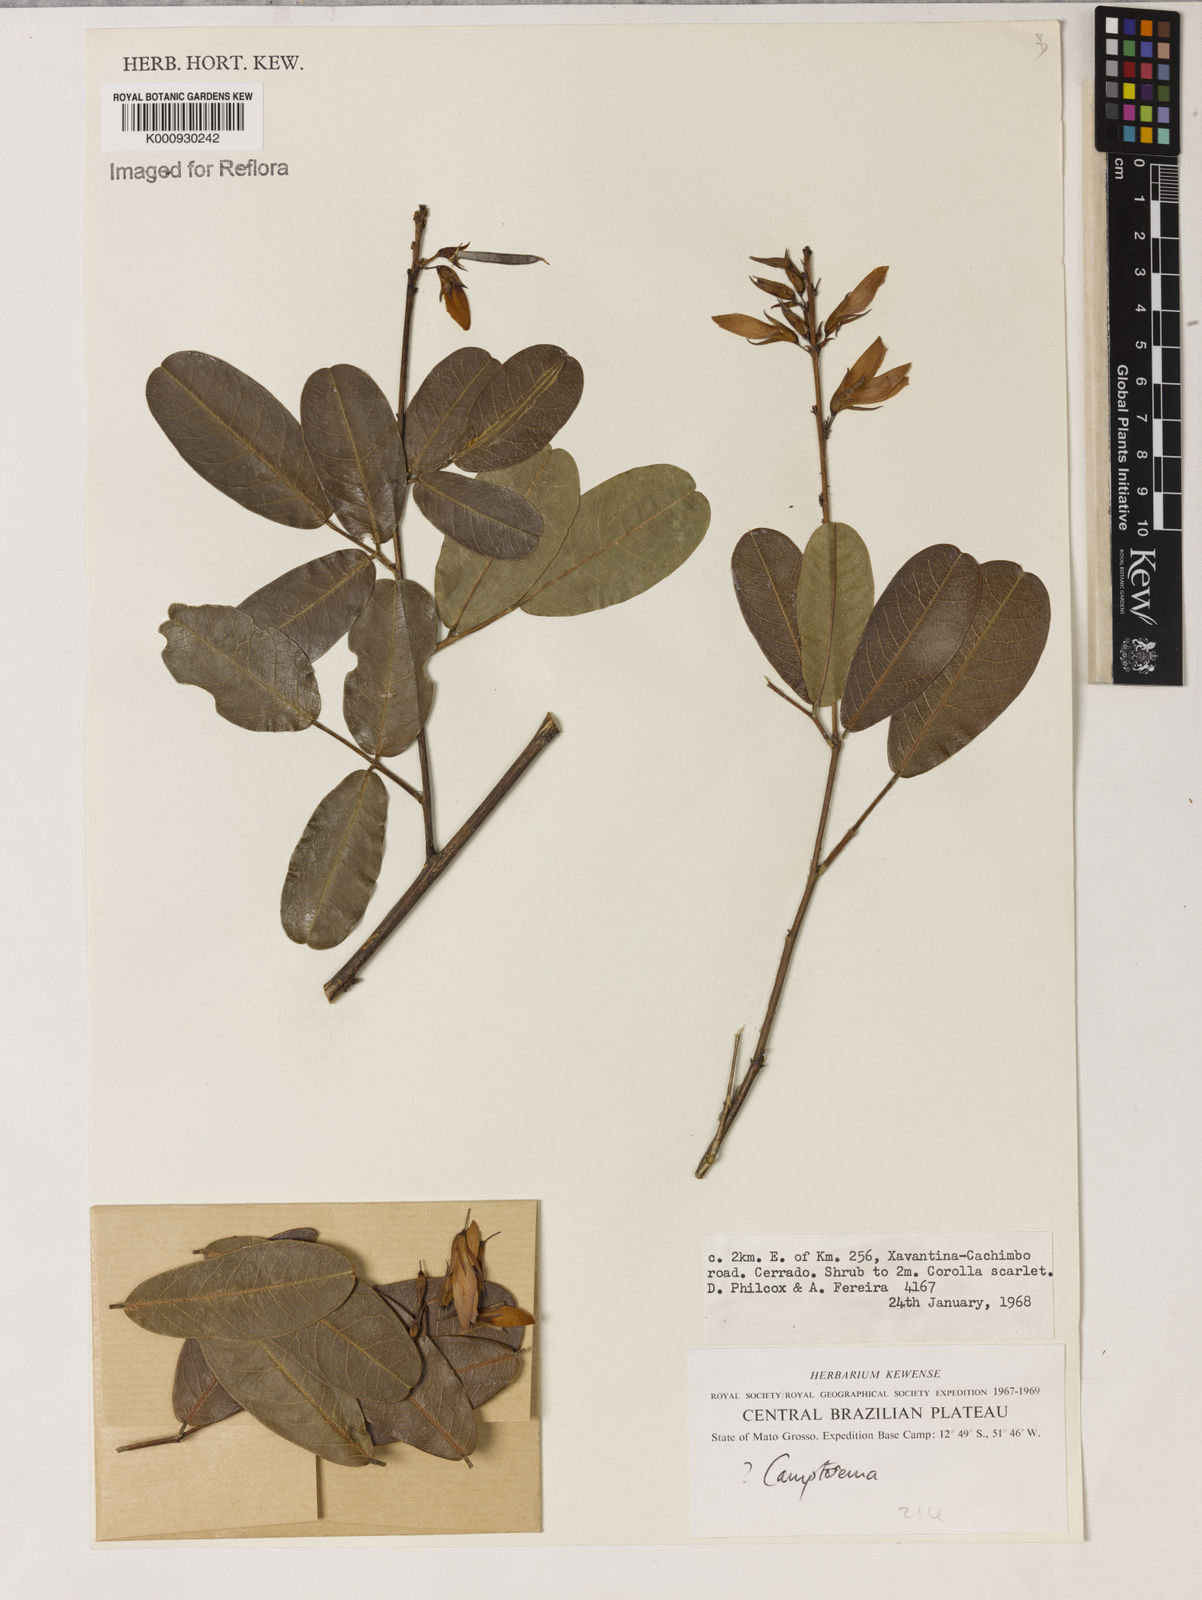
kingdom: Plantae
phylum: Tracheophyta
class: Magnoliopsida
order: Fabales
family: Fabaceae
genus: Camptosema
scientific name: Camptosema rubicundum
